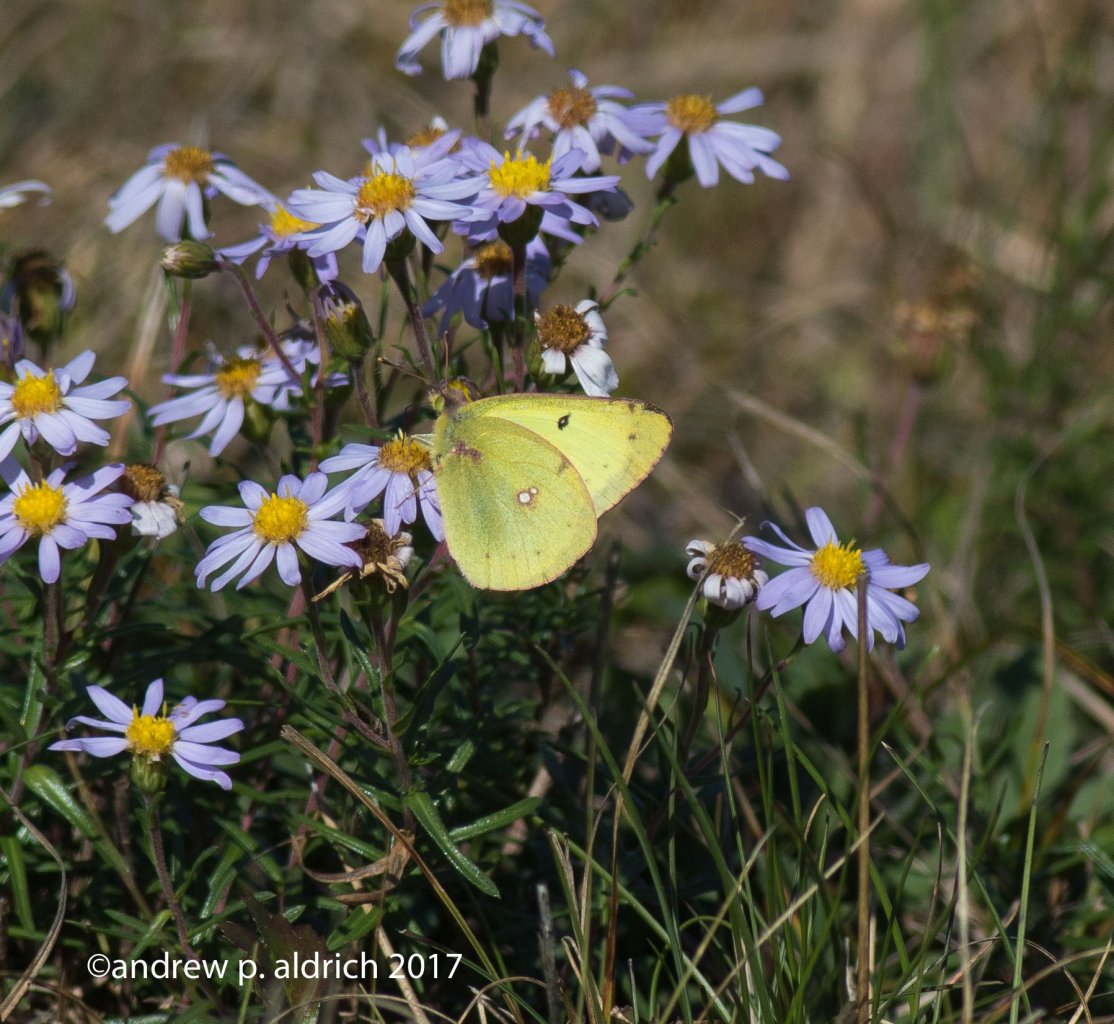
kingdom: Animalia
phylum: Arthropoda
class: Insecta
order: Lepidoptera
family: Pieridae
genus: Colias
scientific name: Colias philodice
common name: Clouded Sulphur
